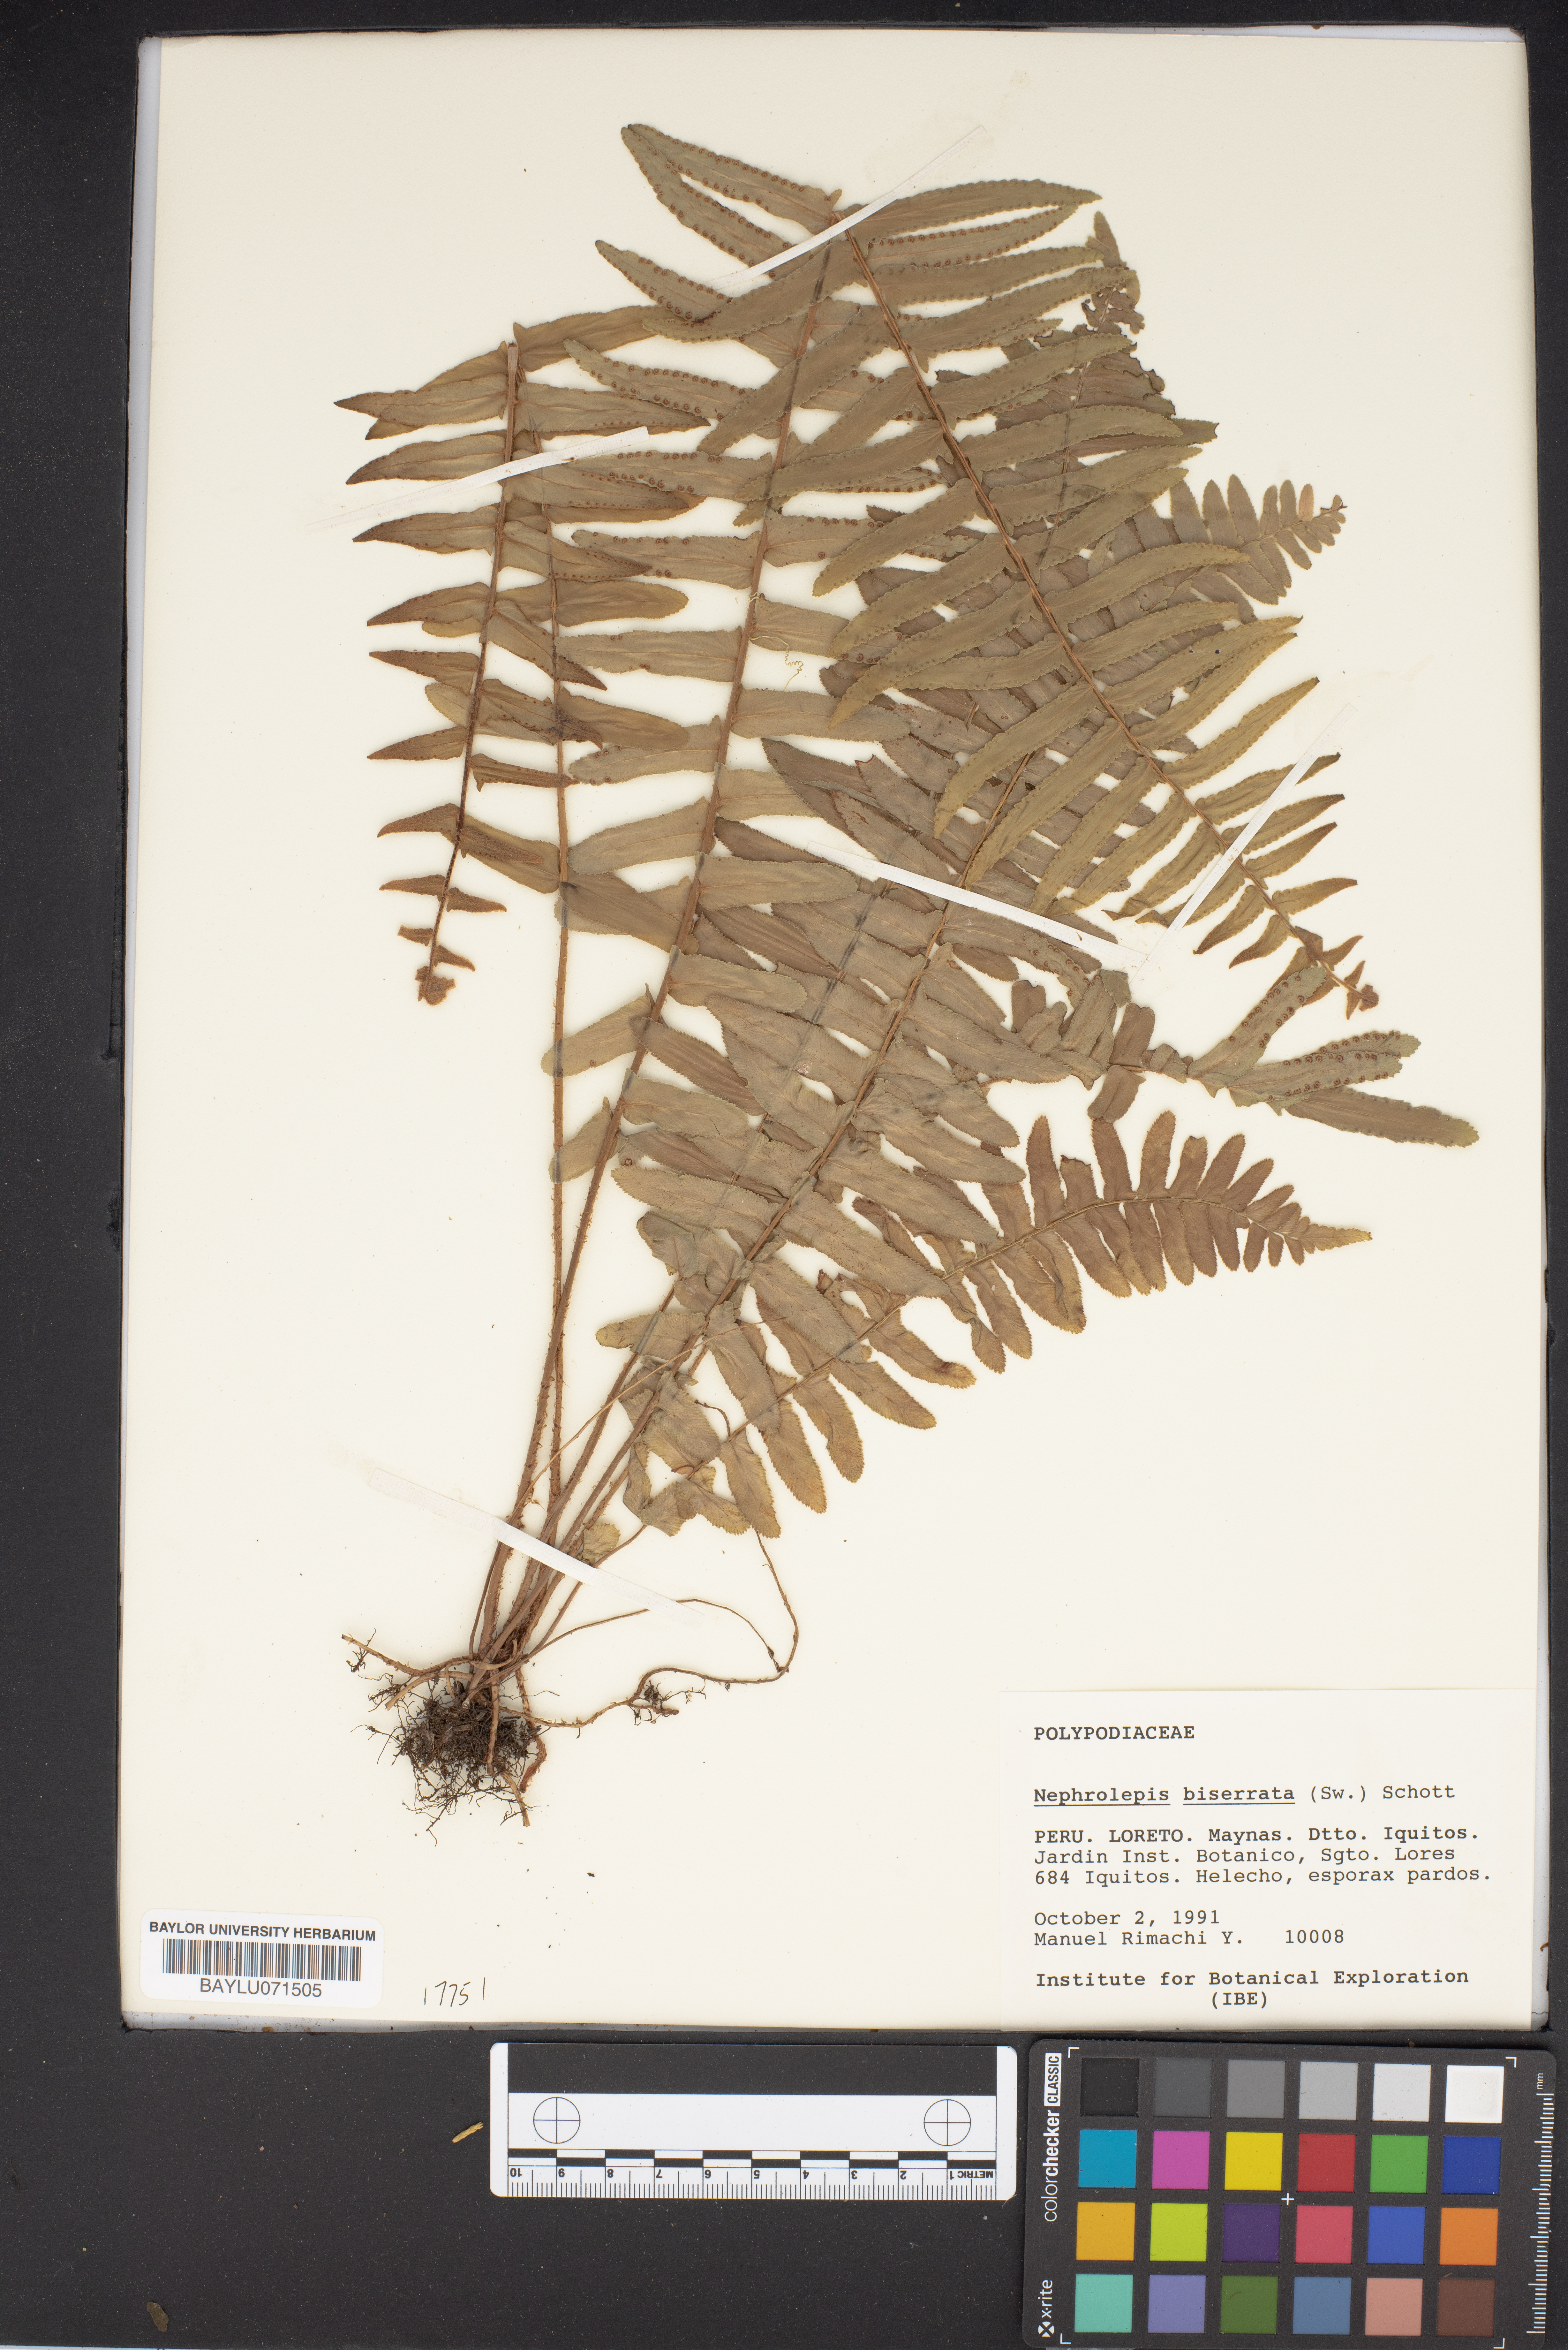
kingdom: Plantae
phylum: Tracheophyta
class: Polypodiopsida
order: Polypodiales
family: Nephrolepidaceae
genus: Nephrolepis
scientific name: Nephrolepis biserrata
